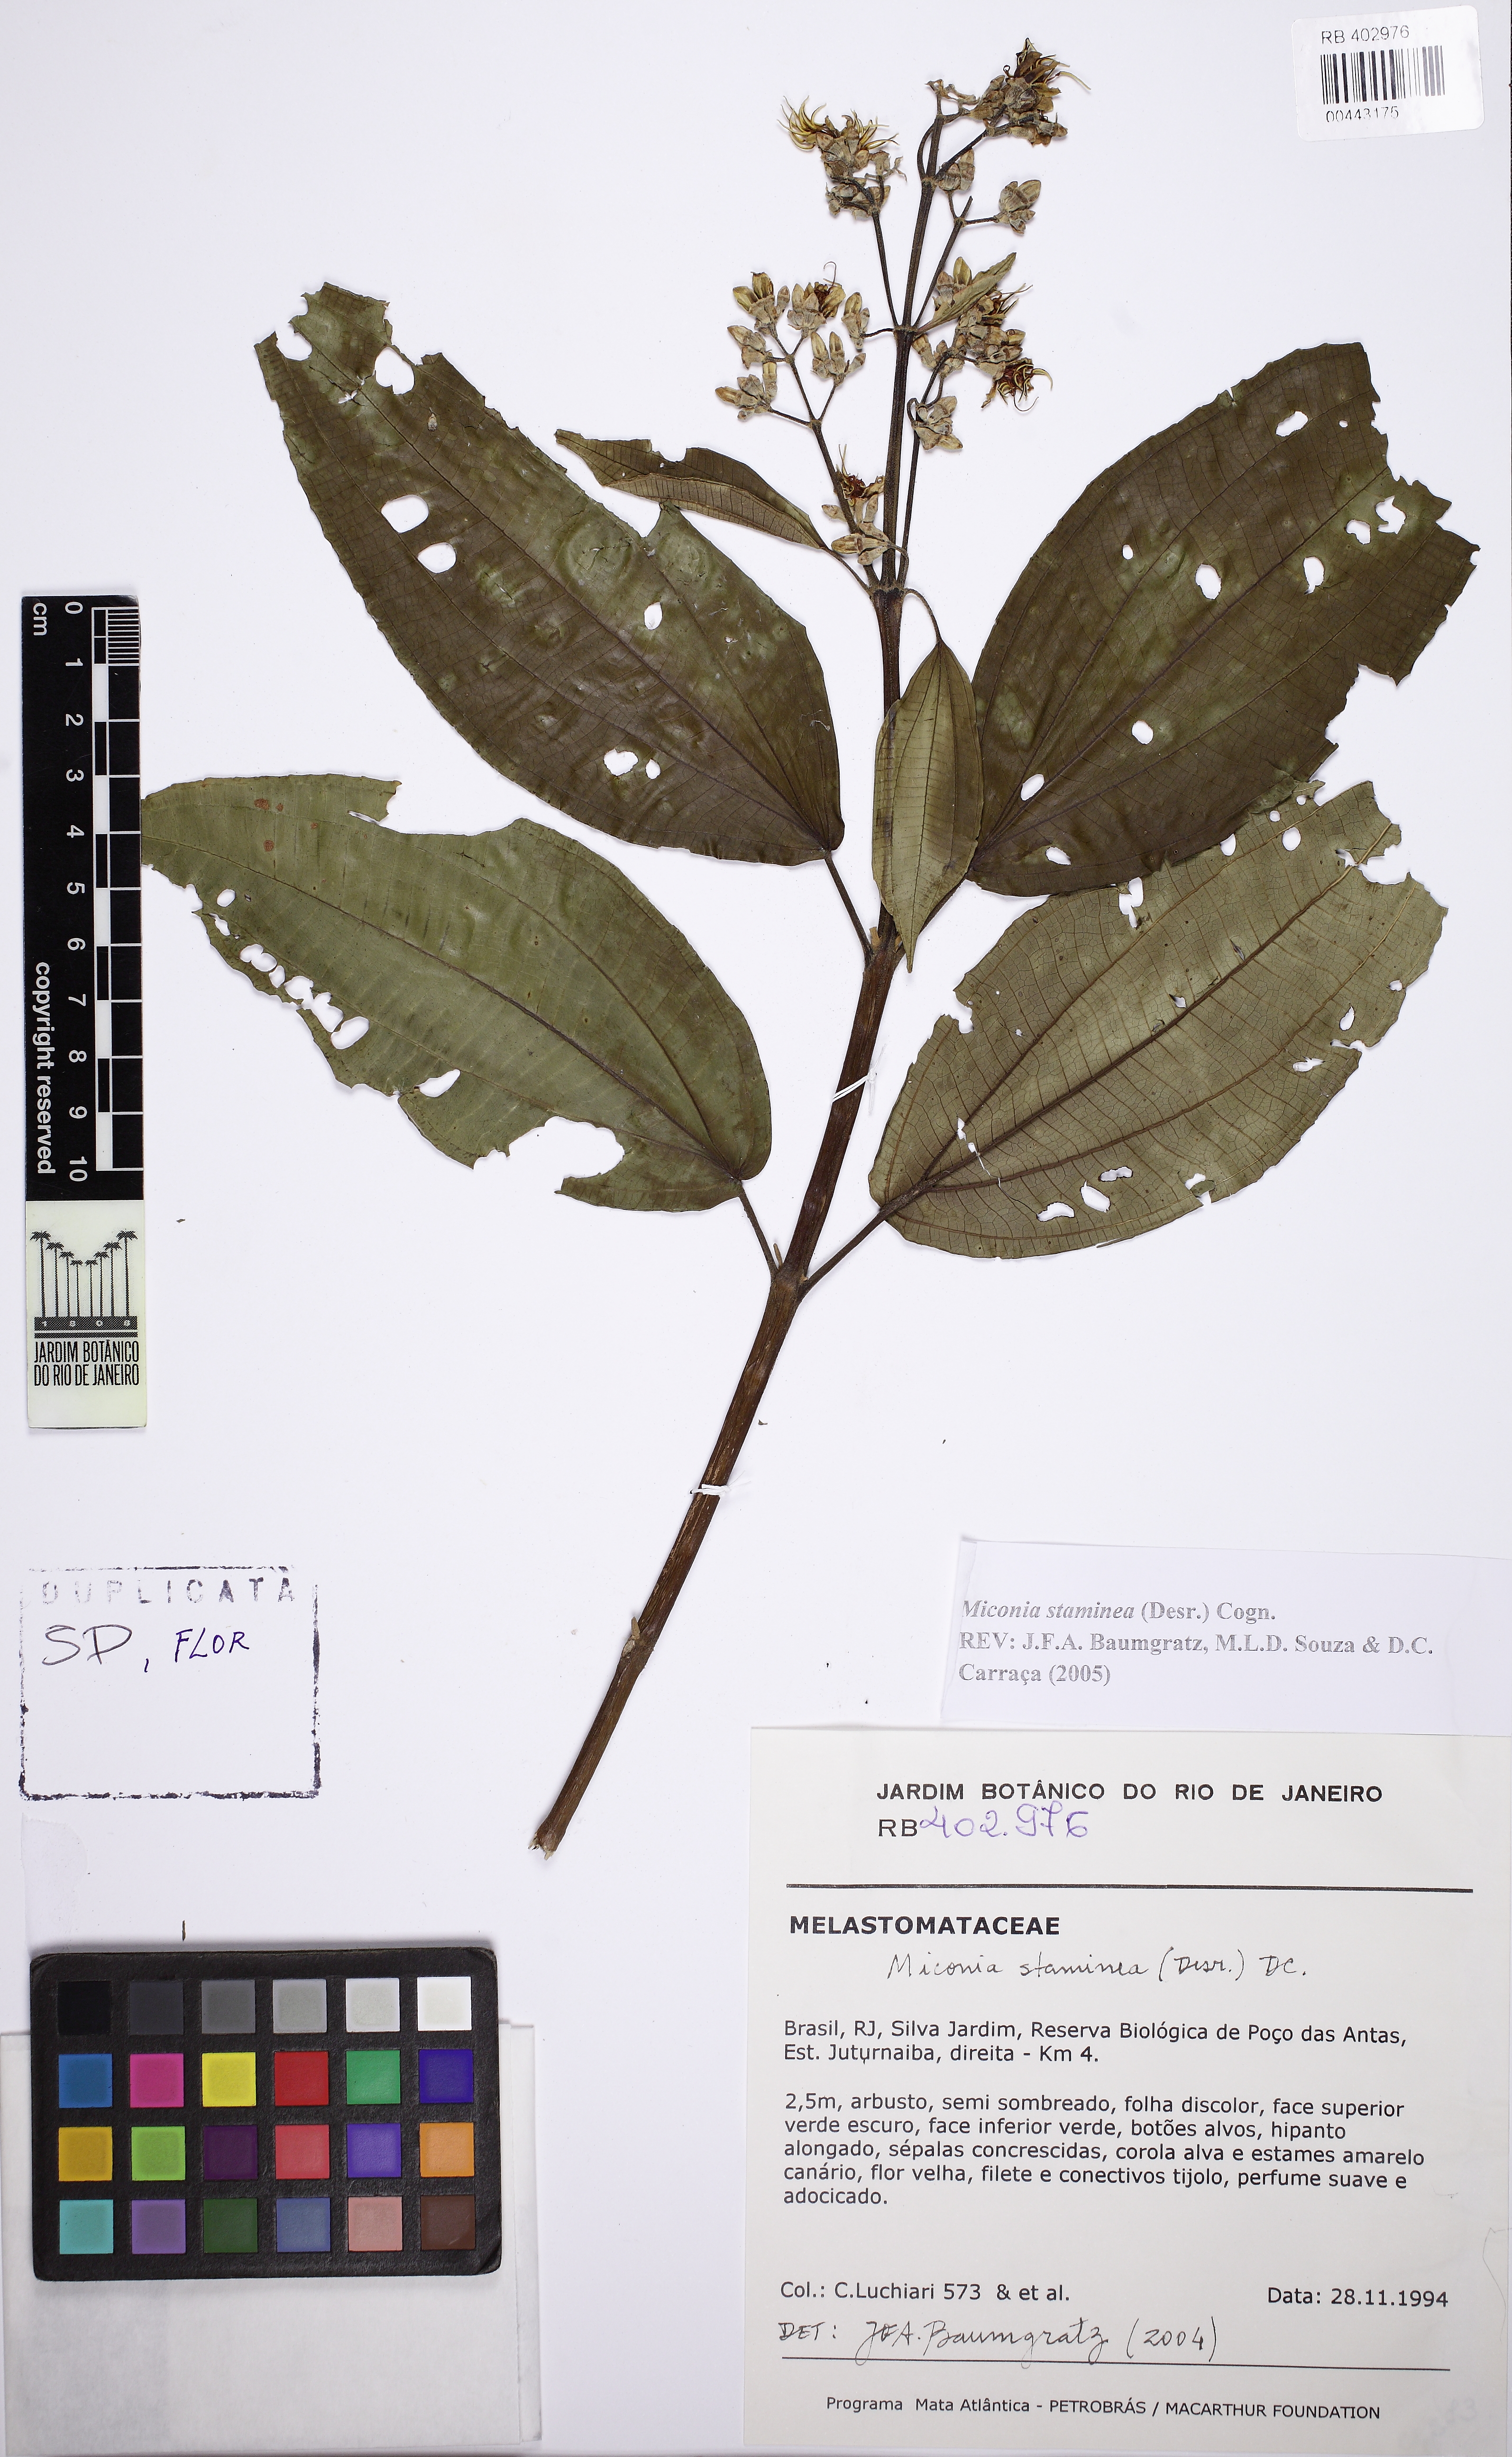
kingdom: Plantae
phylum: Tracheophyta
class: Magnoliopsida
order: Myrtales
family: Melastomataceae
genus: Miconia
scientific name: Miconia staminea
